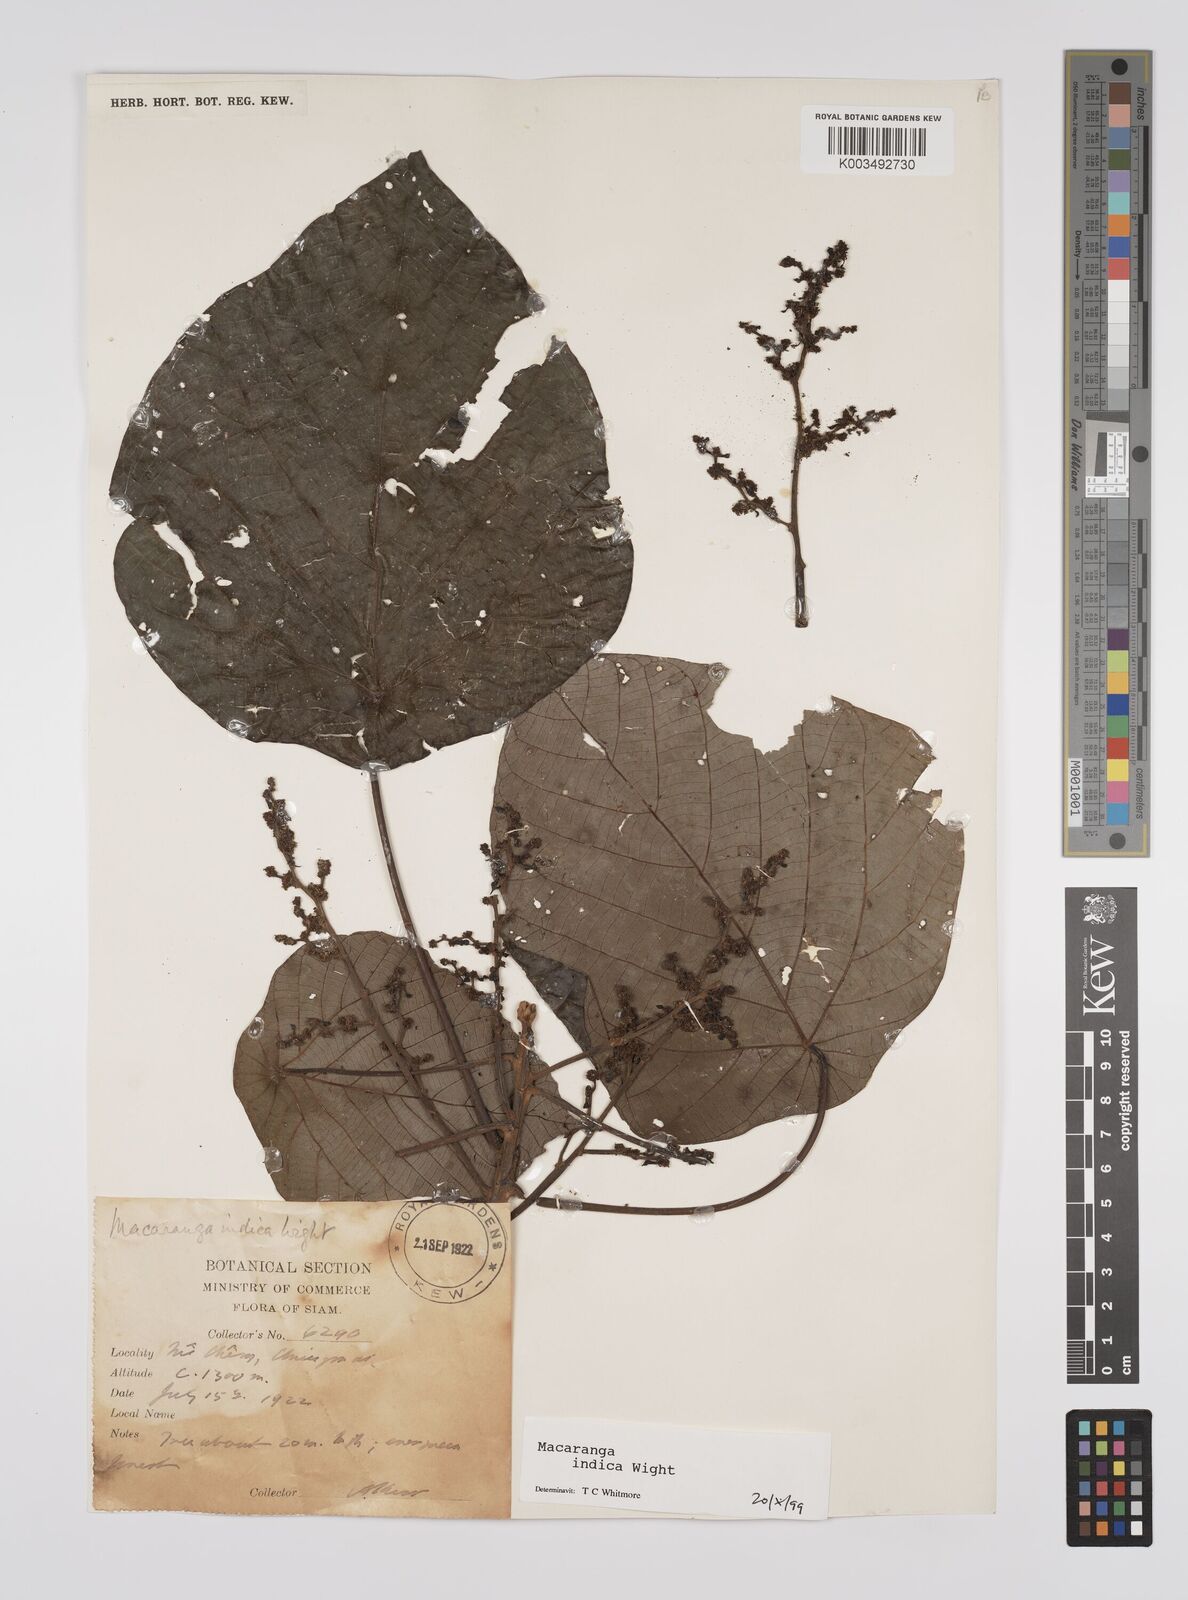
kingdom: Plantae
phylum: Tracheophyta
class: Magnoliopsida
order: Malpighiales
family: Euphorbiaceae
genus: Macaranga
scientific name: Macaranga indica
